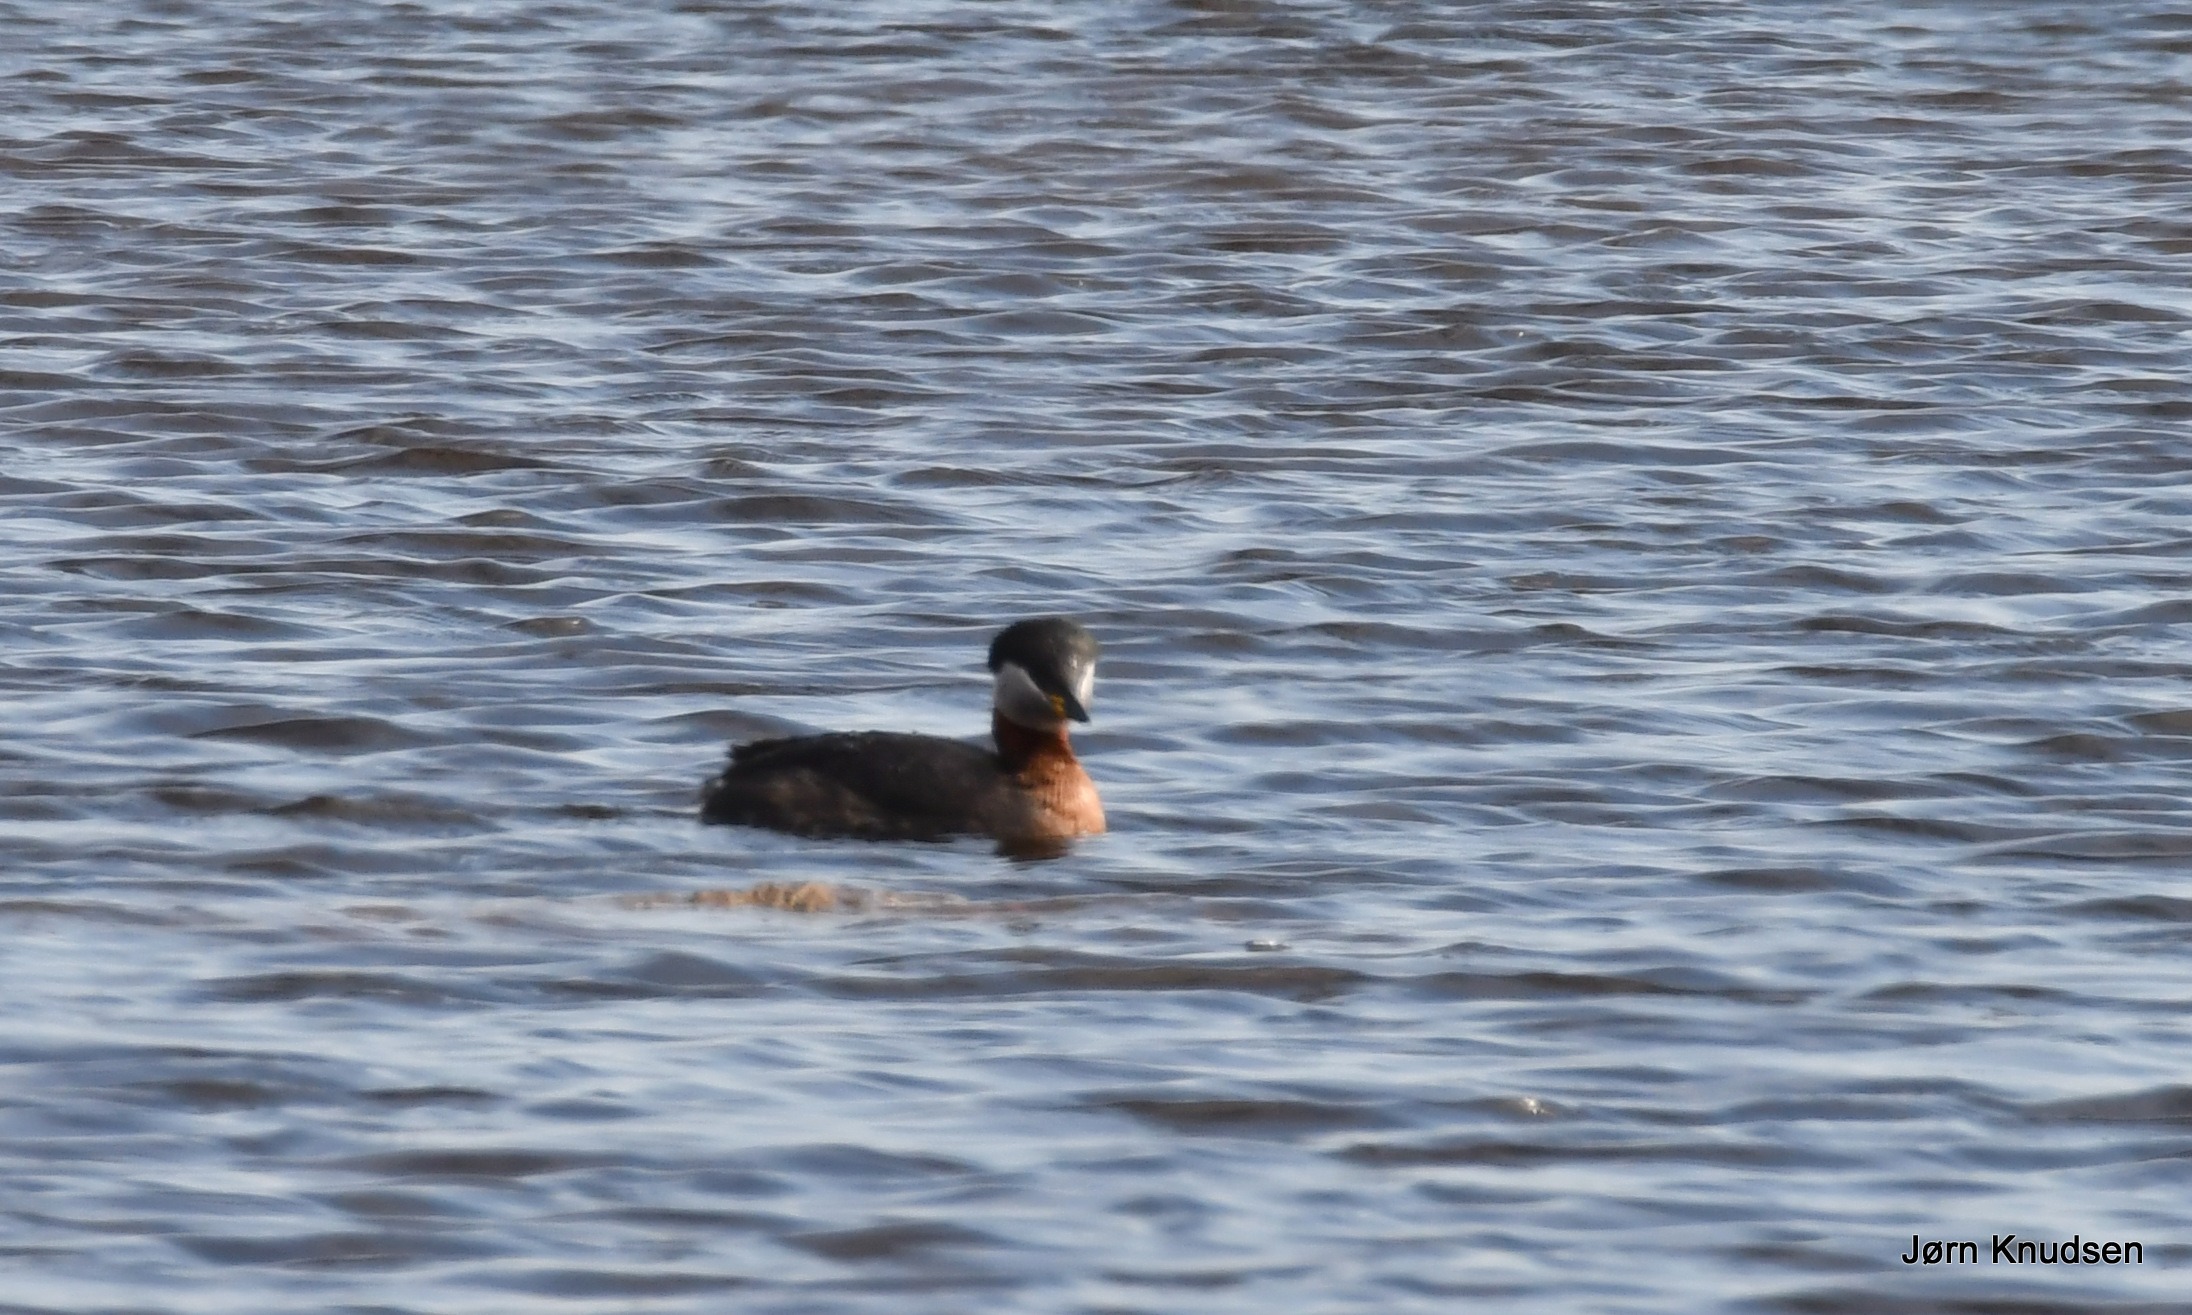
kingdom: Animalia
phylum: Chordata
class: Aves
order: Podicipediformes
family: Podicipedidae
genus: Podiceps
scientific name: Podiceps grisegena
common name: Gråstrubet lappedykker
